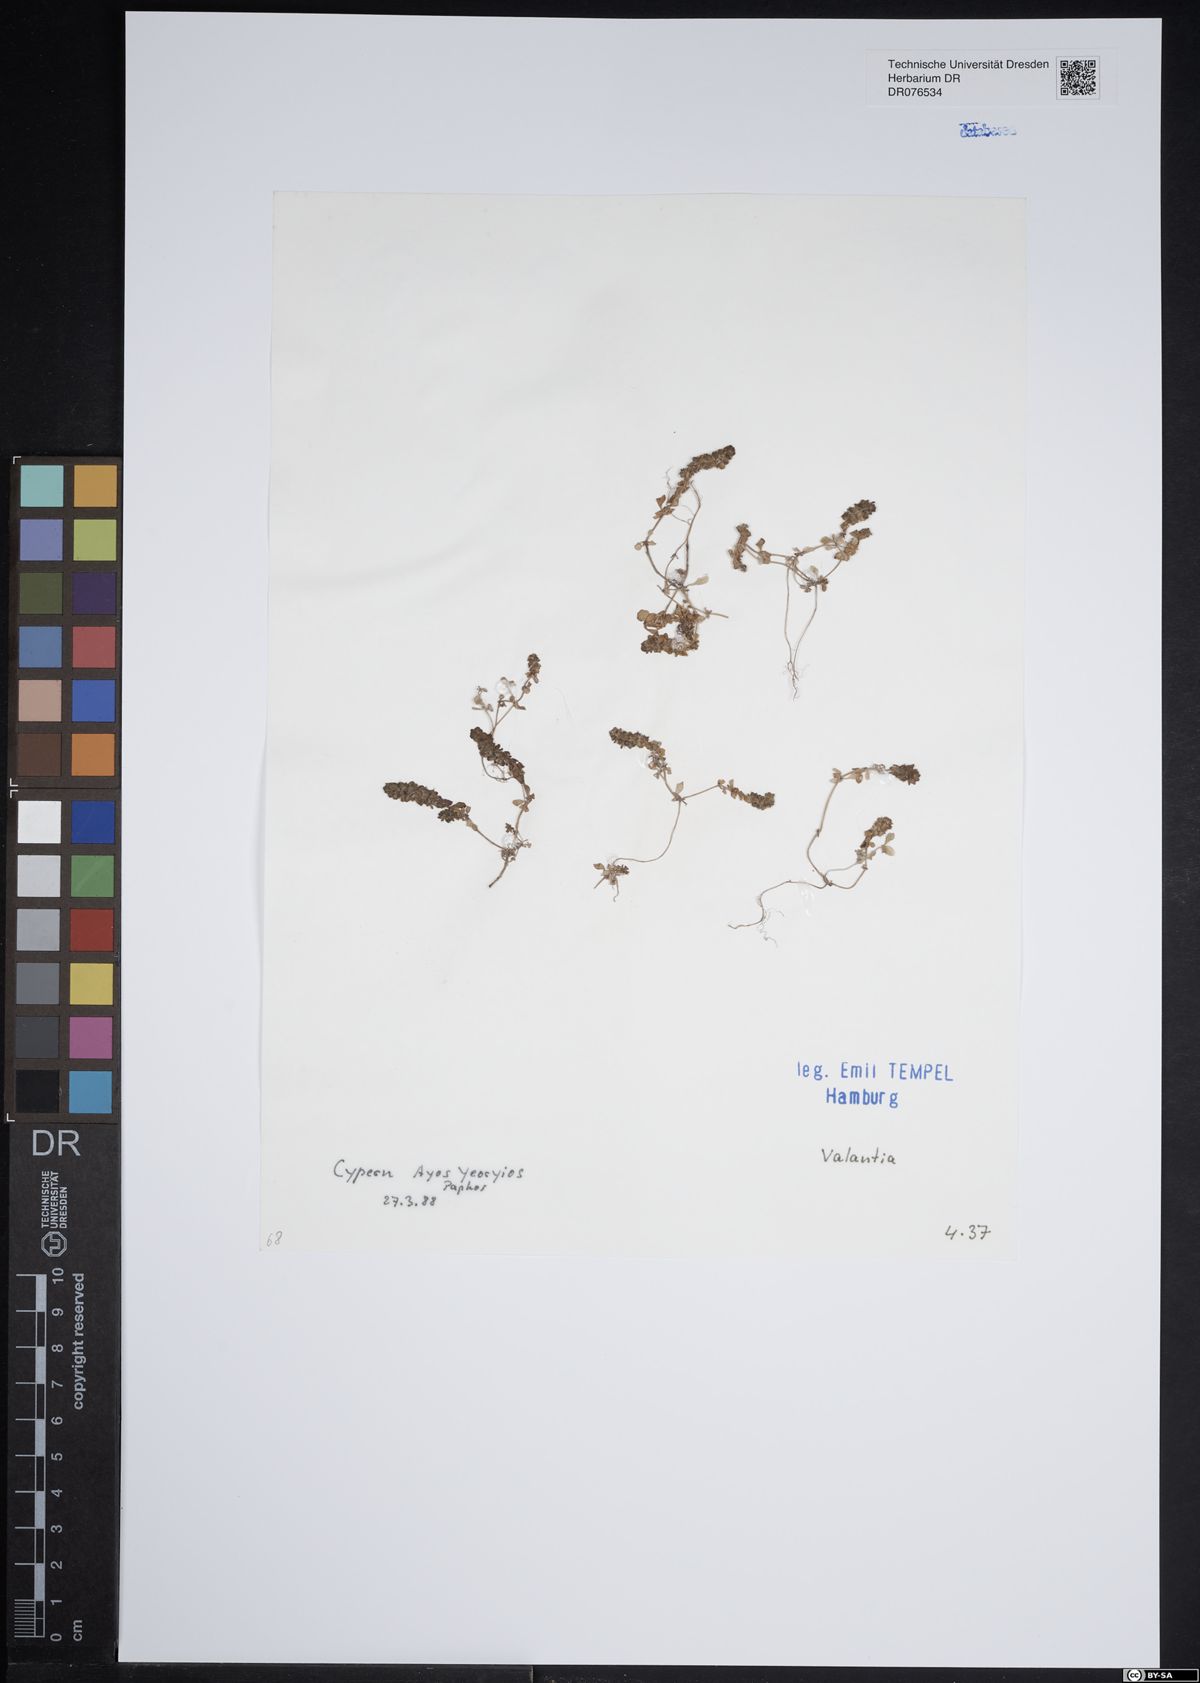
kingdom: Plantae
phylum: Tracheophyta
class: Magnoliopsida
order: Gentianales
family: Rubiaceae
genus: Valantia
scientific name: Valantia
